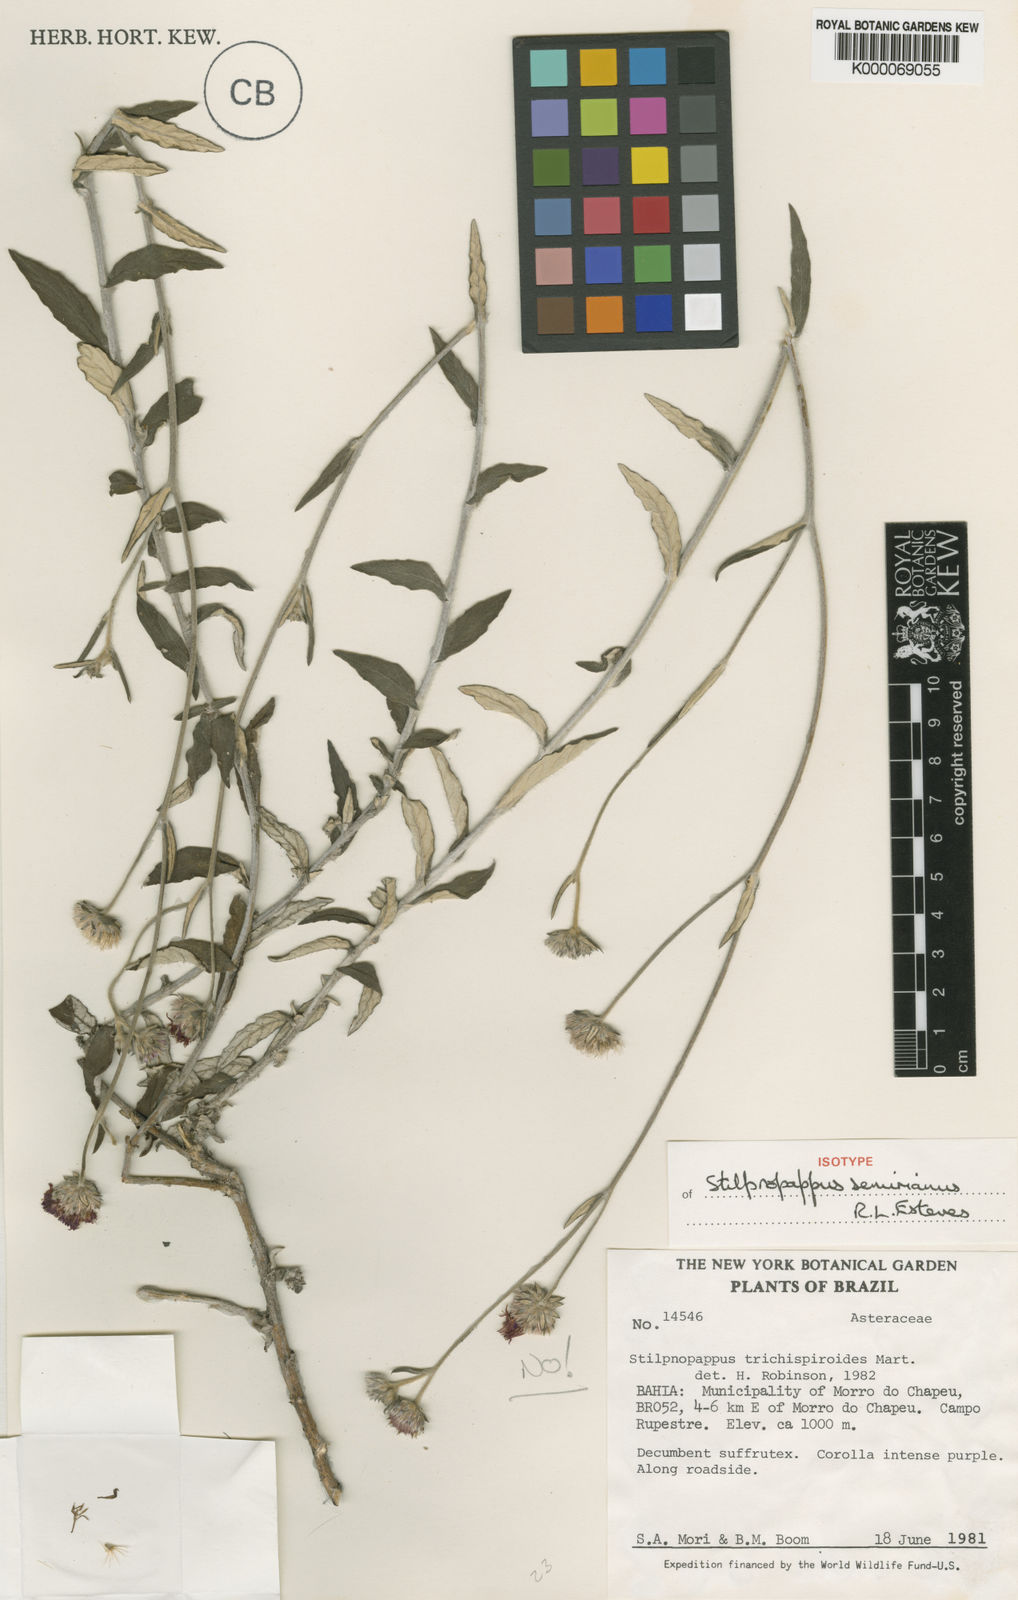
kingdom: Plantae
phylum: Tracheophyta
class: Magnoliopsida
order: Asterales
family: Asteraceae
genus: Stilpnopappus
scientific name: Stilpnopappus semirianus
